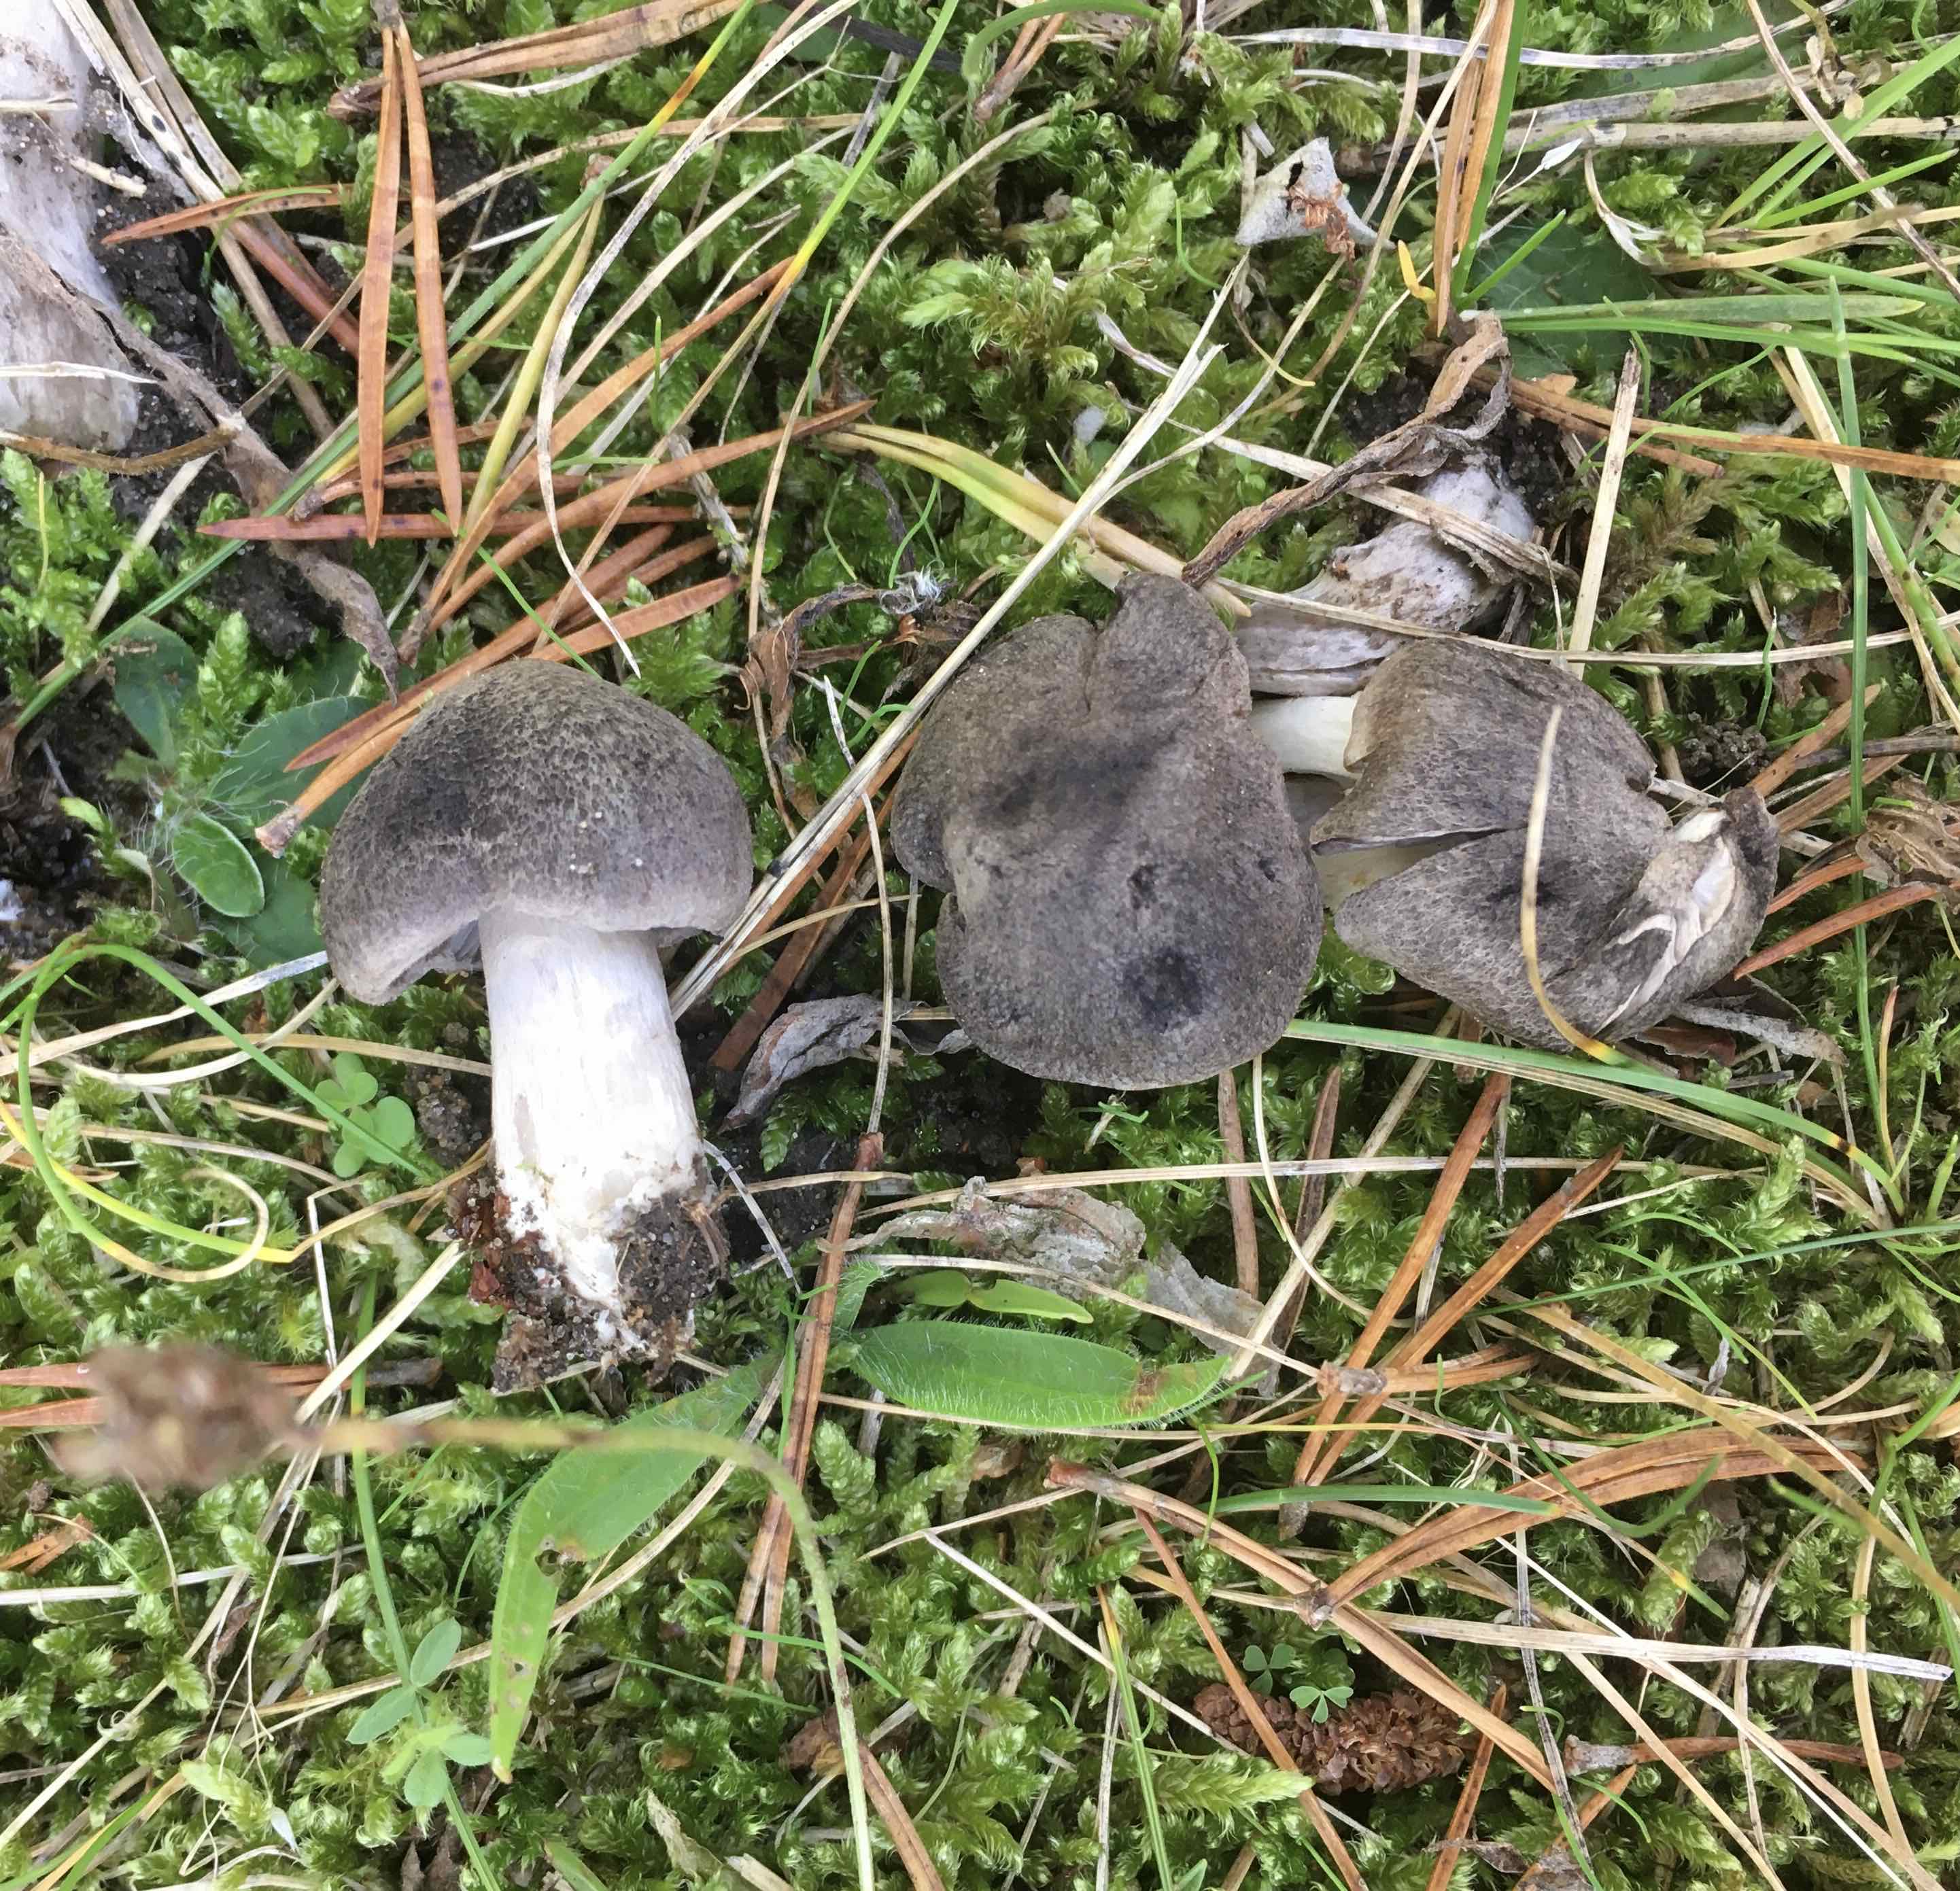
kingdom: Fungi
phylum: Basidiomycota
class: Agaricomycetes
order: Agaricales
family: Tricholomataceae
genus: Tricholoma
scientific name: Tricholoma terreum
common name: jordfarvet ridderhat
